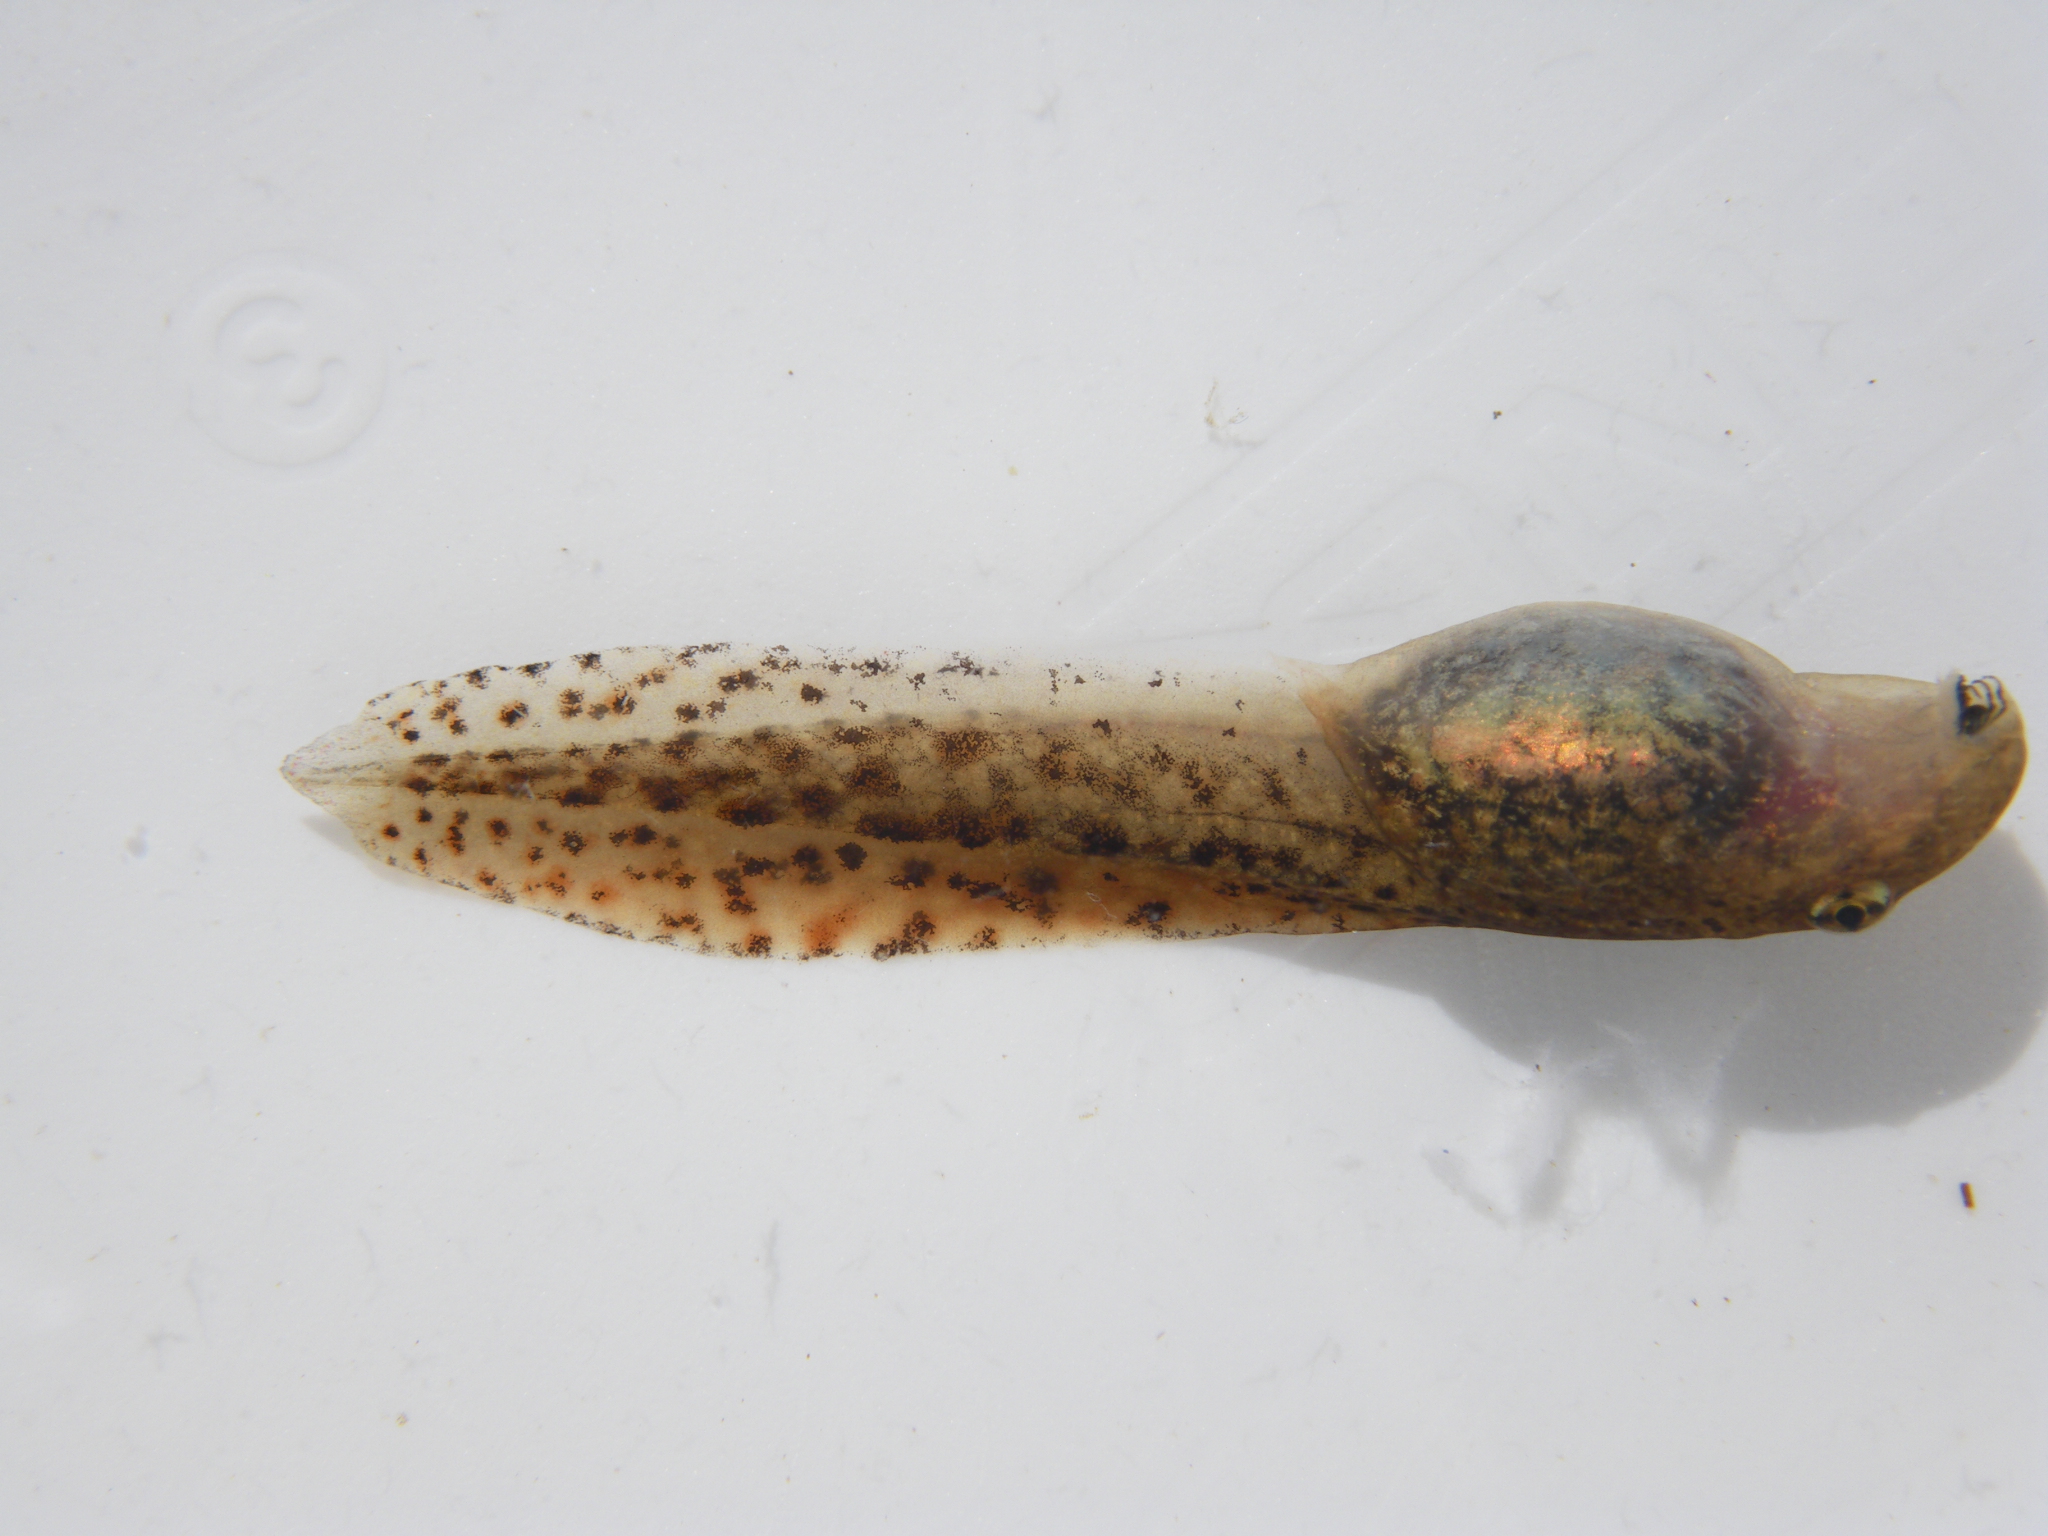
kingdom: Animalia
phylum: Chordata
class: Amphibia
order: Anura
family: Pyxicephalidae
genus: Amietia
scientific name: Amietia
